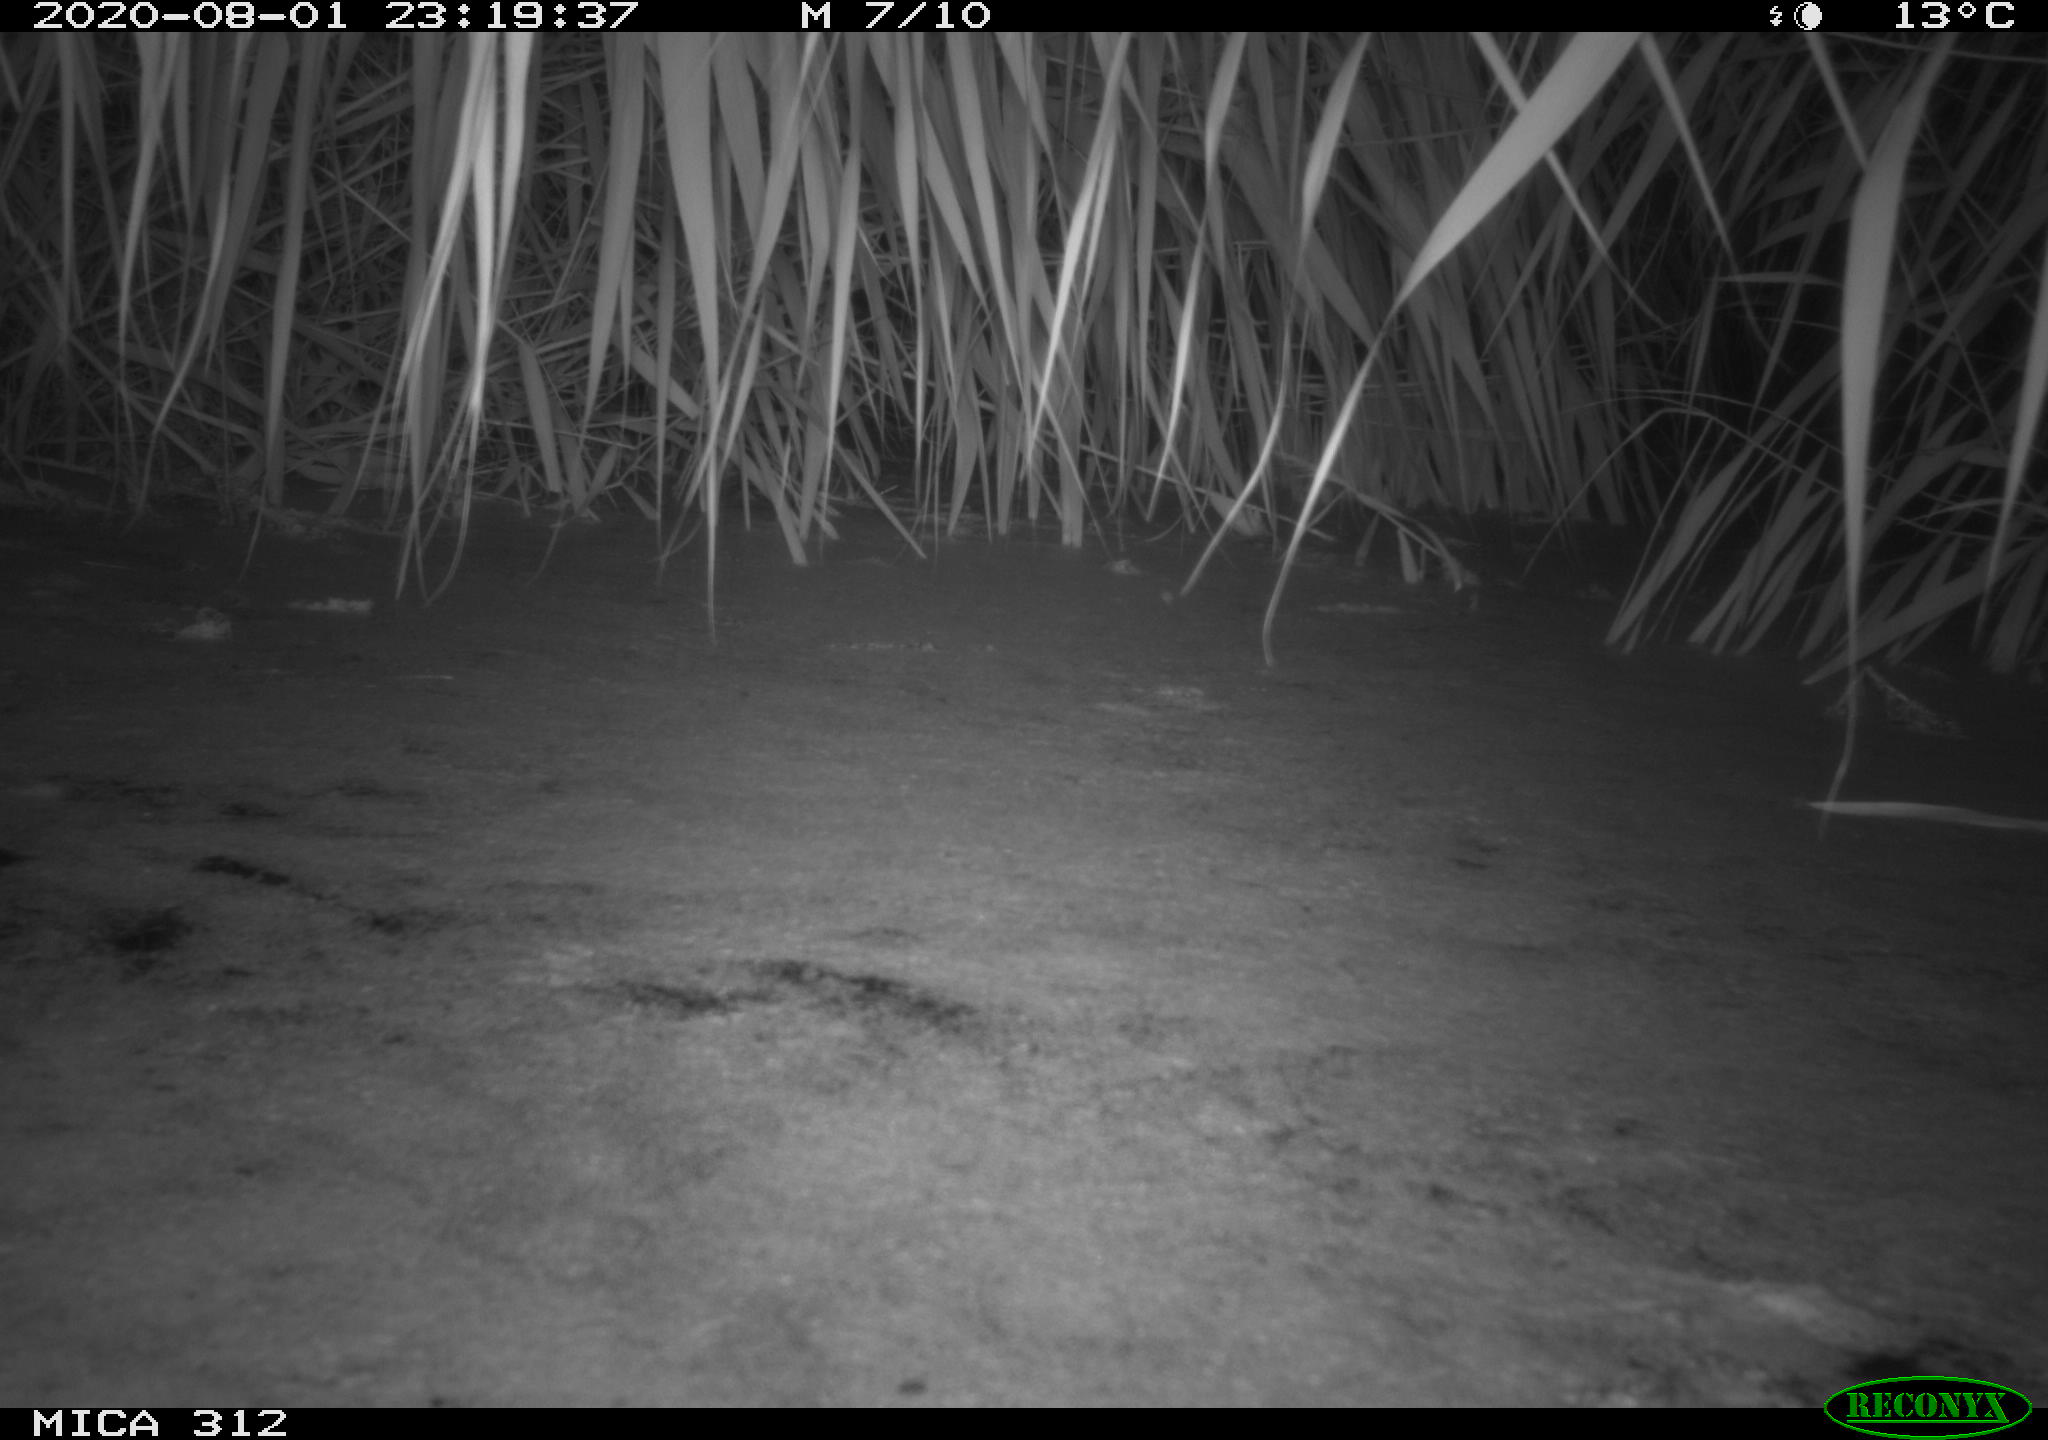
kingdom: Animalia
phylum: Chordata
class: Aves
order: Anseriformes
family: Anatidae
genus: Anas
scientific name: Anas platyrhynchos
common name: Mallard
